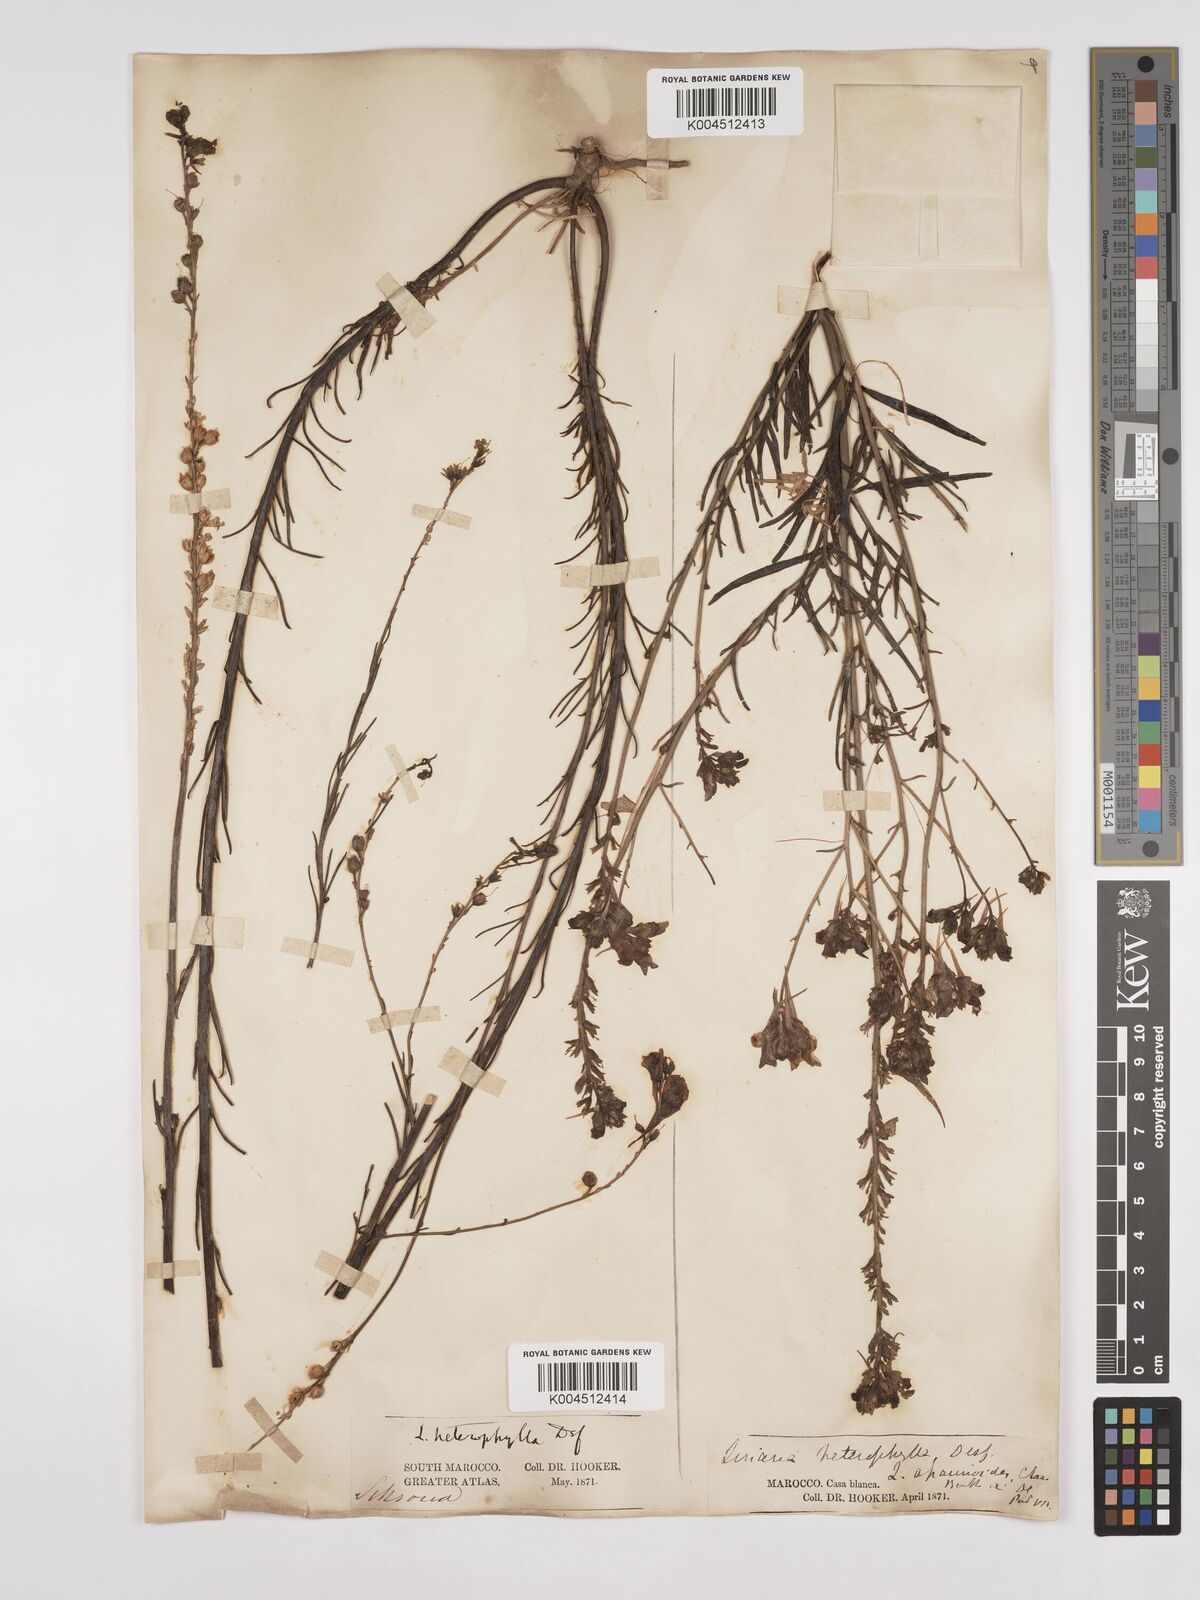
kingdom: Plantae
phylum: Tracheophyta
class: Magnoliopsida
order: Lamiales
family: Plantaginaceae
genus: Linaria
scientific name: Linaria multicaulis
